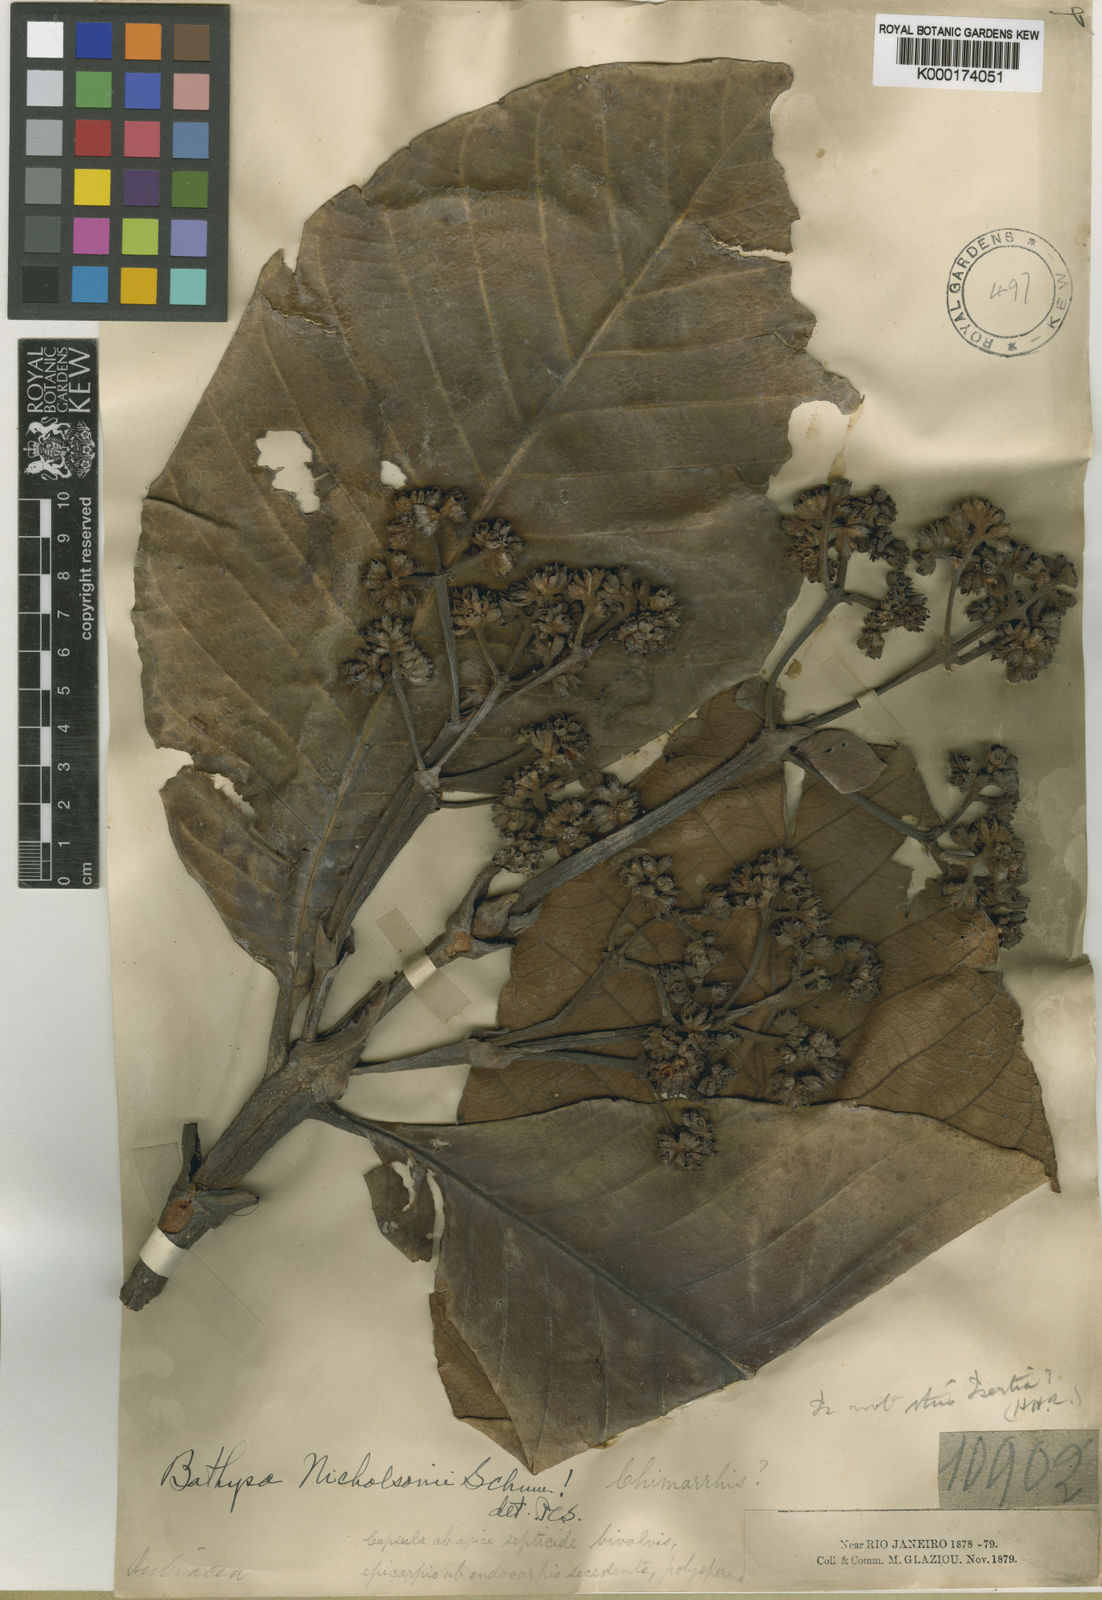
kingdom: Plantae
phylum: Tracheophyta
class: Magnoliopsida
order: Gentianales
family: Rubiaceae
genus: Bathysa
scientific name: Bathysa nicholsonii
